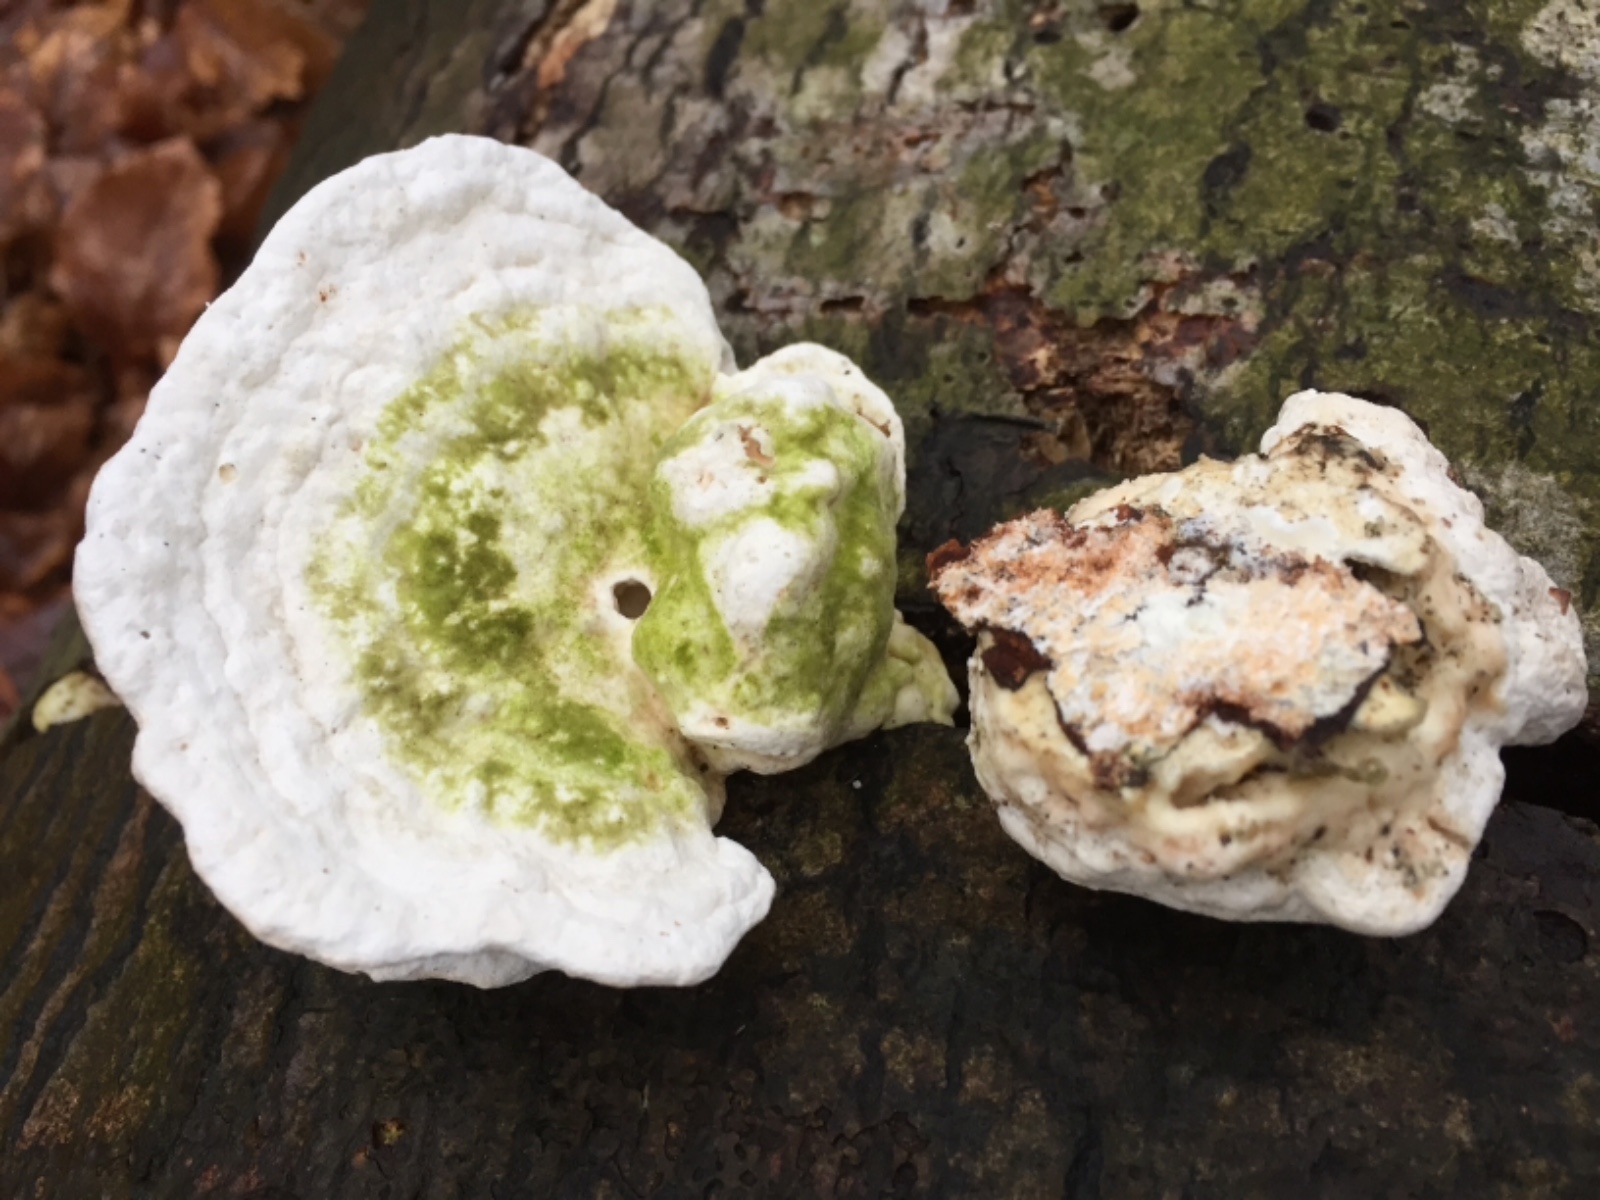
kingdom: Fungi
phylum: Basidiomycota
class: Agaricomycetes
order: Polyporales
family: Polyporaceae
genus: Trametes
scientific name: Trametes gibbosa
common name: puklet læderporesvamp
